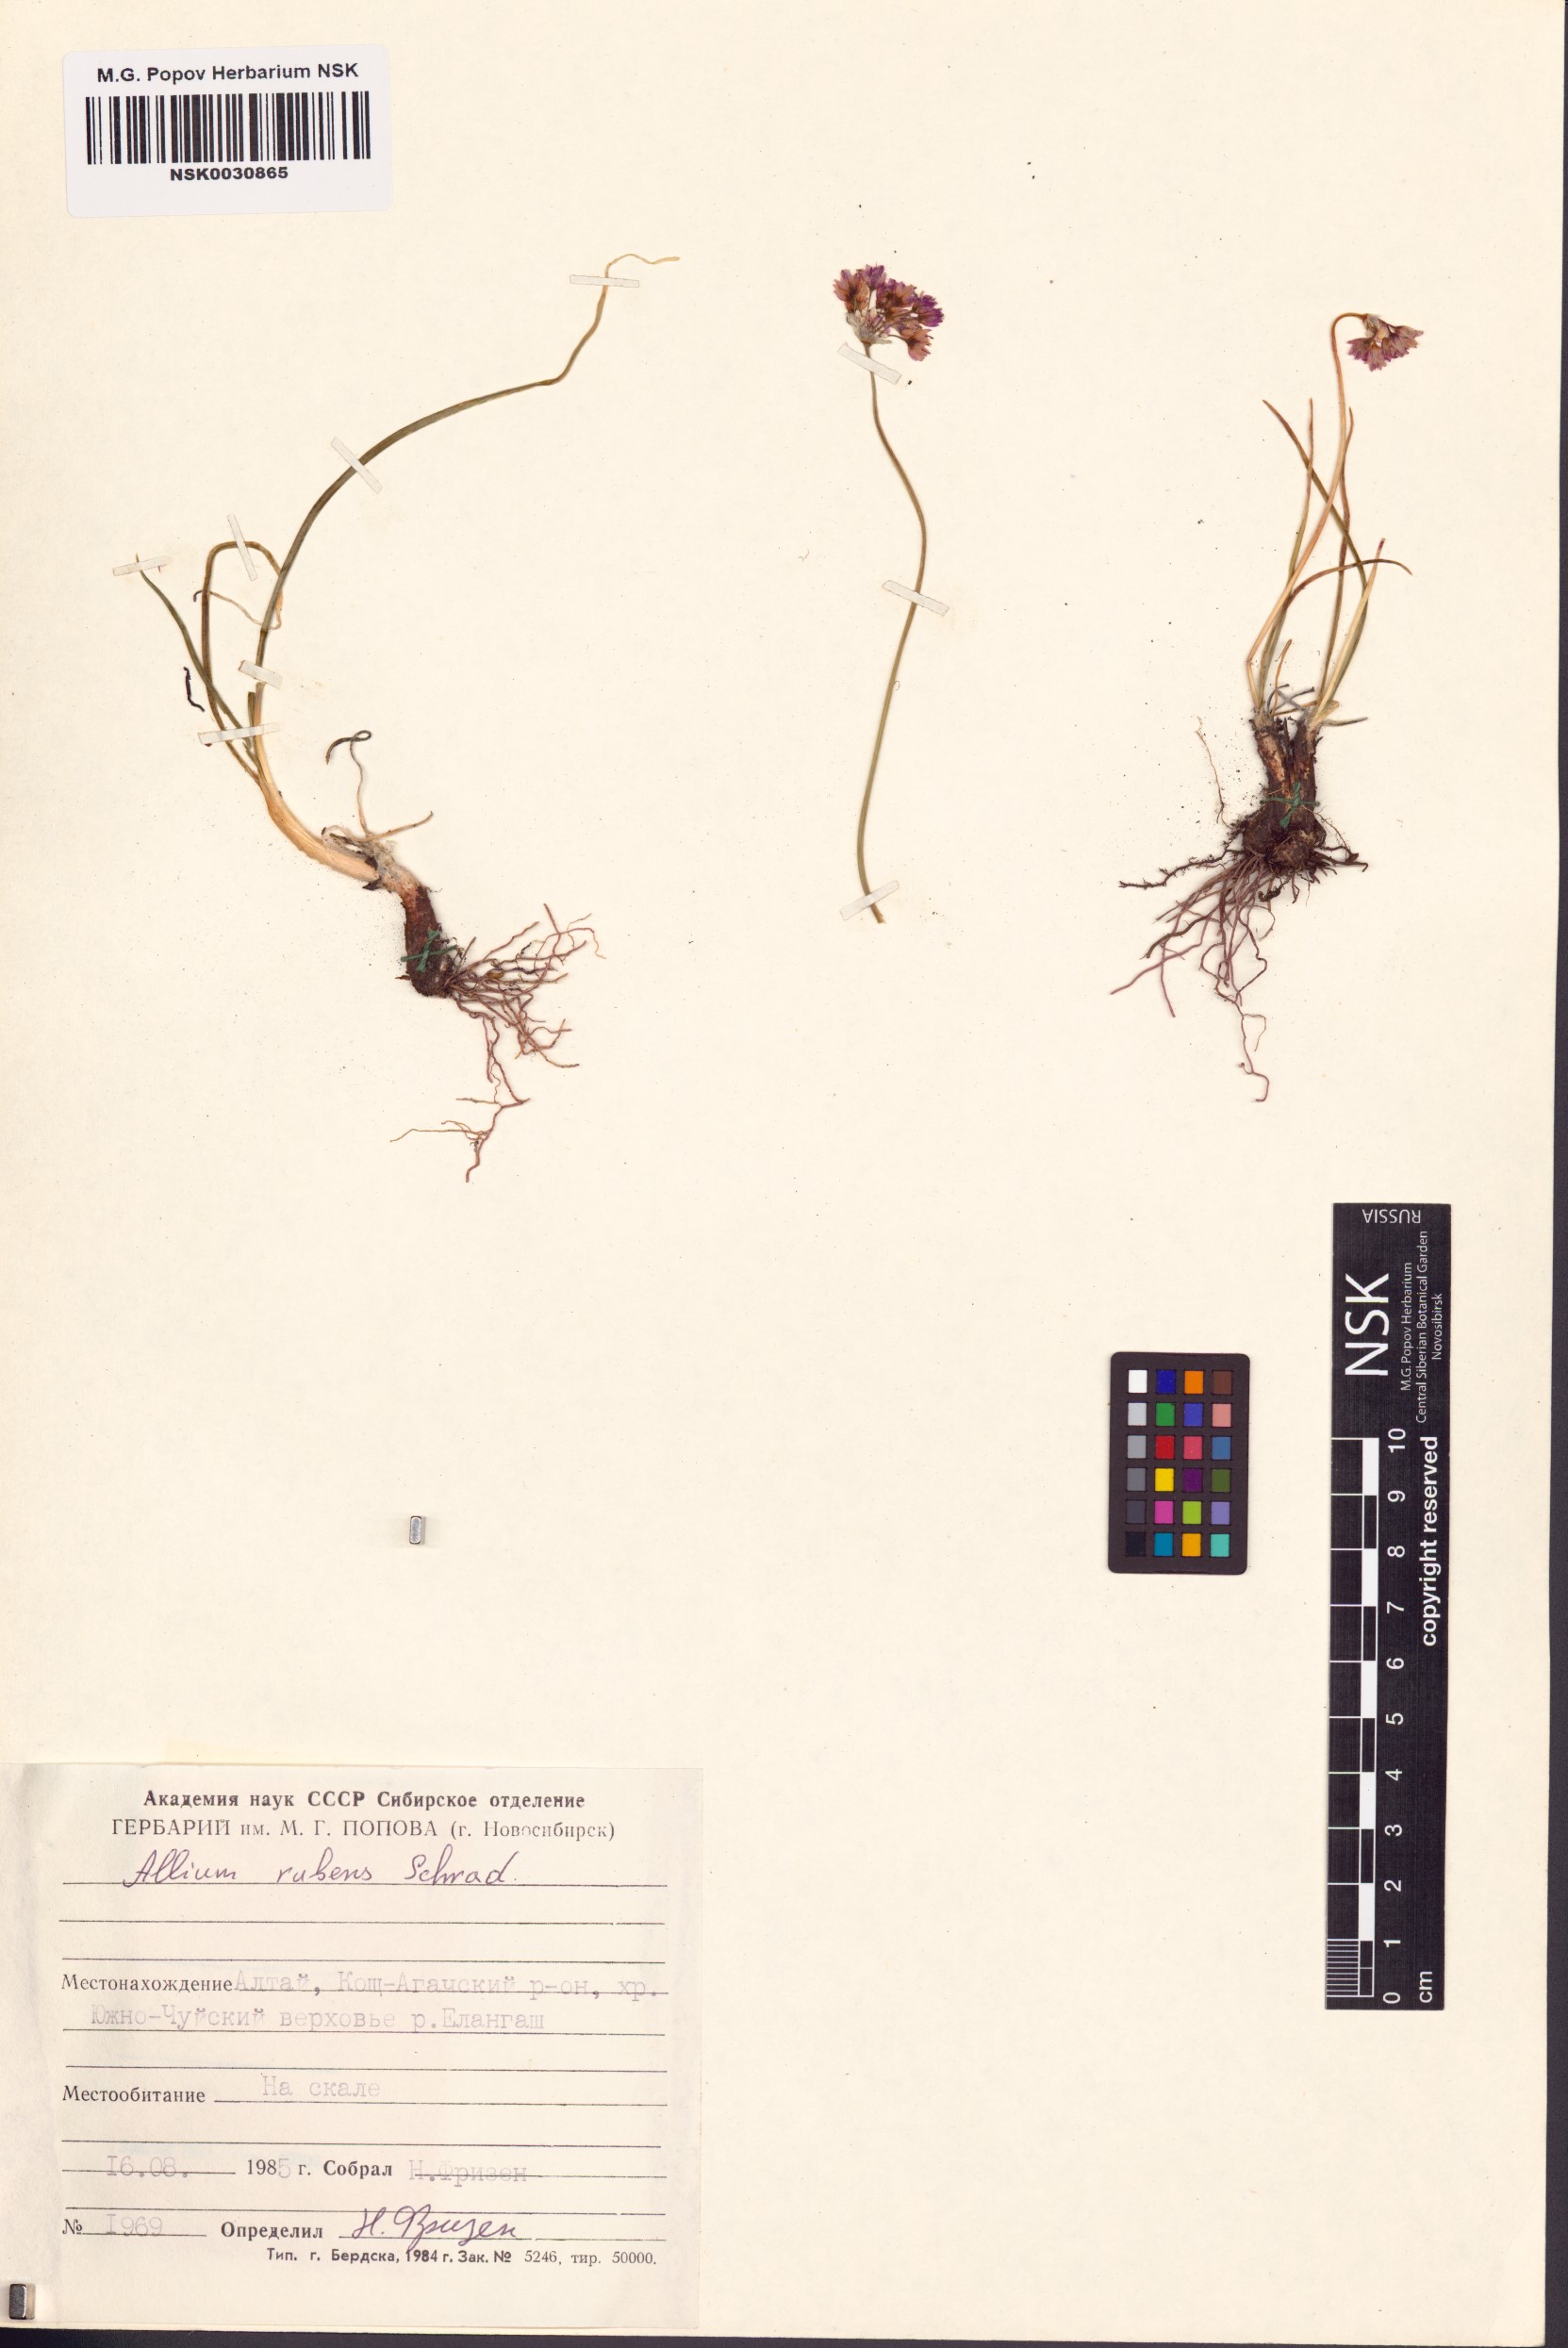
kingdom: Plantae
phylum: Tracheophyta
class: Liliopsida
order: Asparagales
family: Amaryllidaceae
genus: Allium
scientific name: Allium rubens
